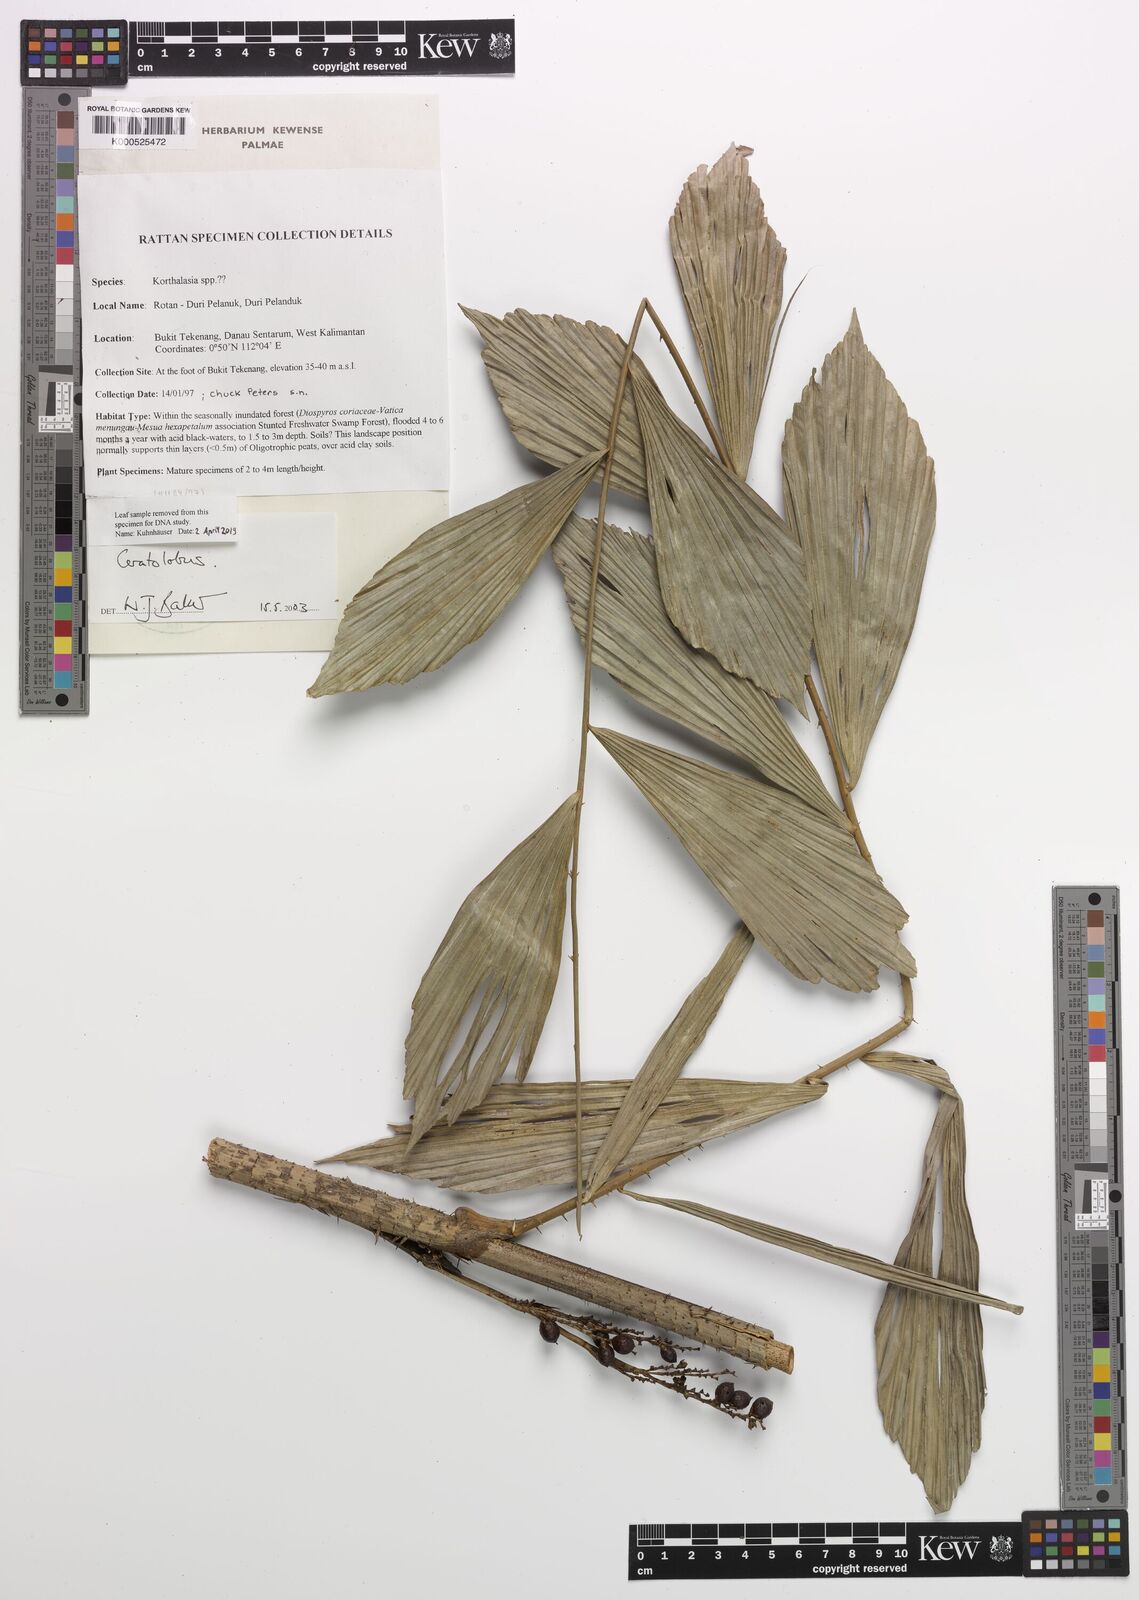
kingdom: Plantae
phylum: Tracheophyta
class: Liliopsida
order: Arecales
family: Arecaceae
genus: Calamus
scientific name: Calamus hallierianus
